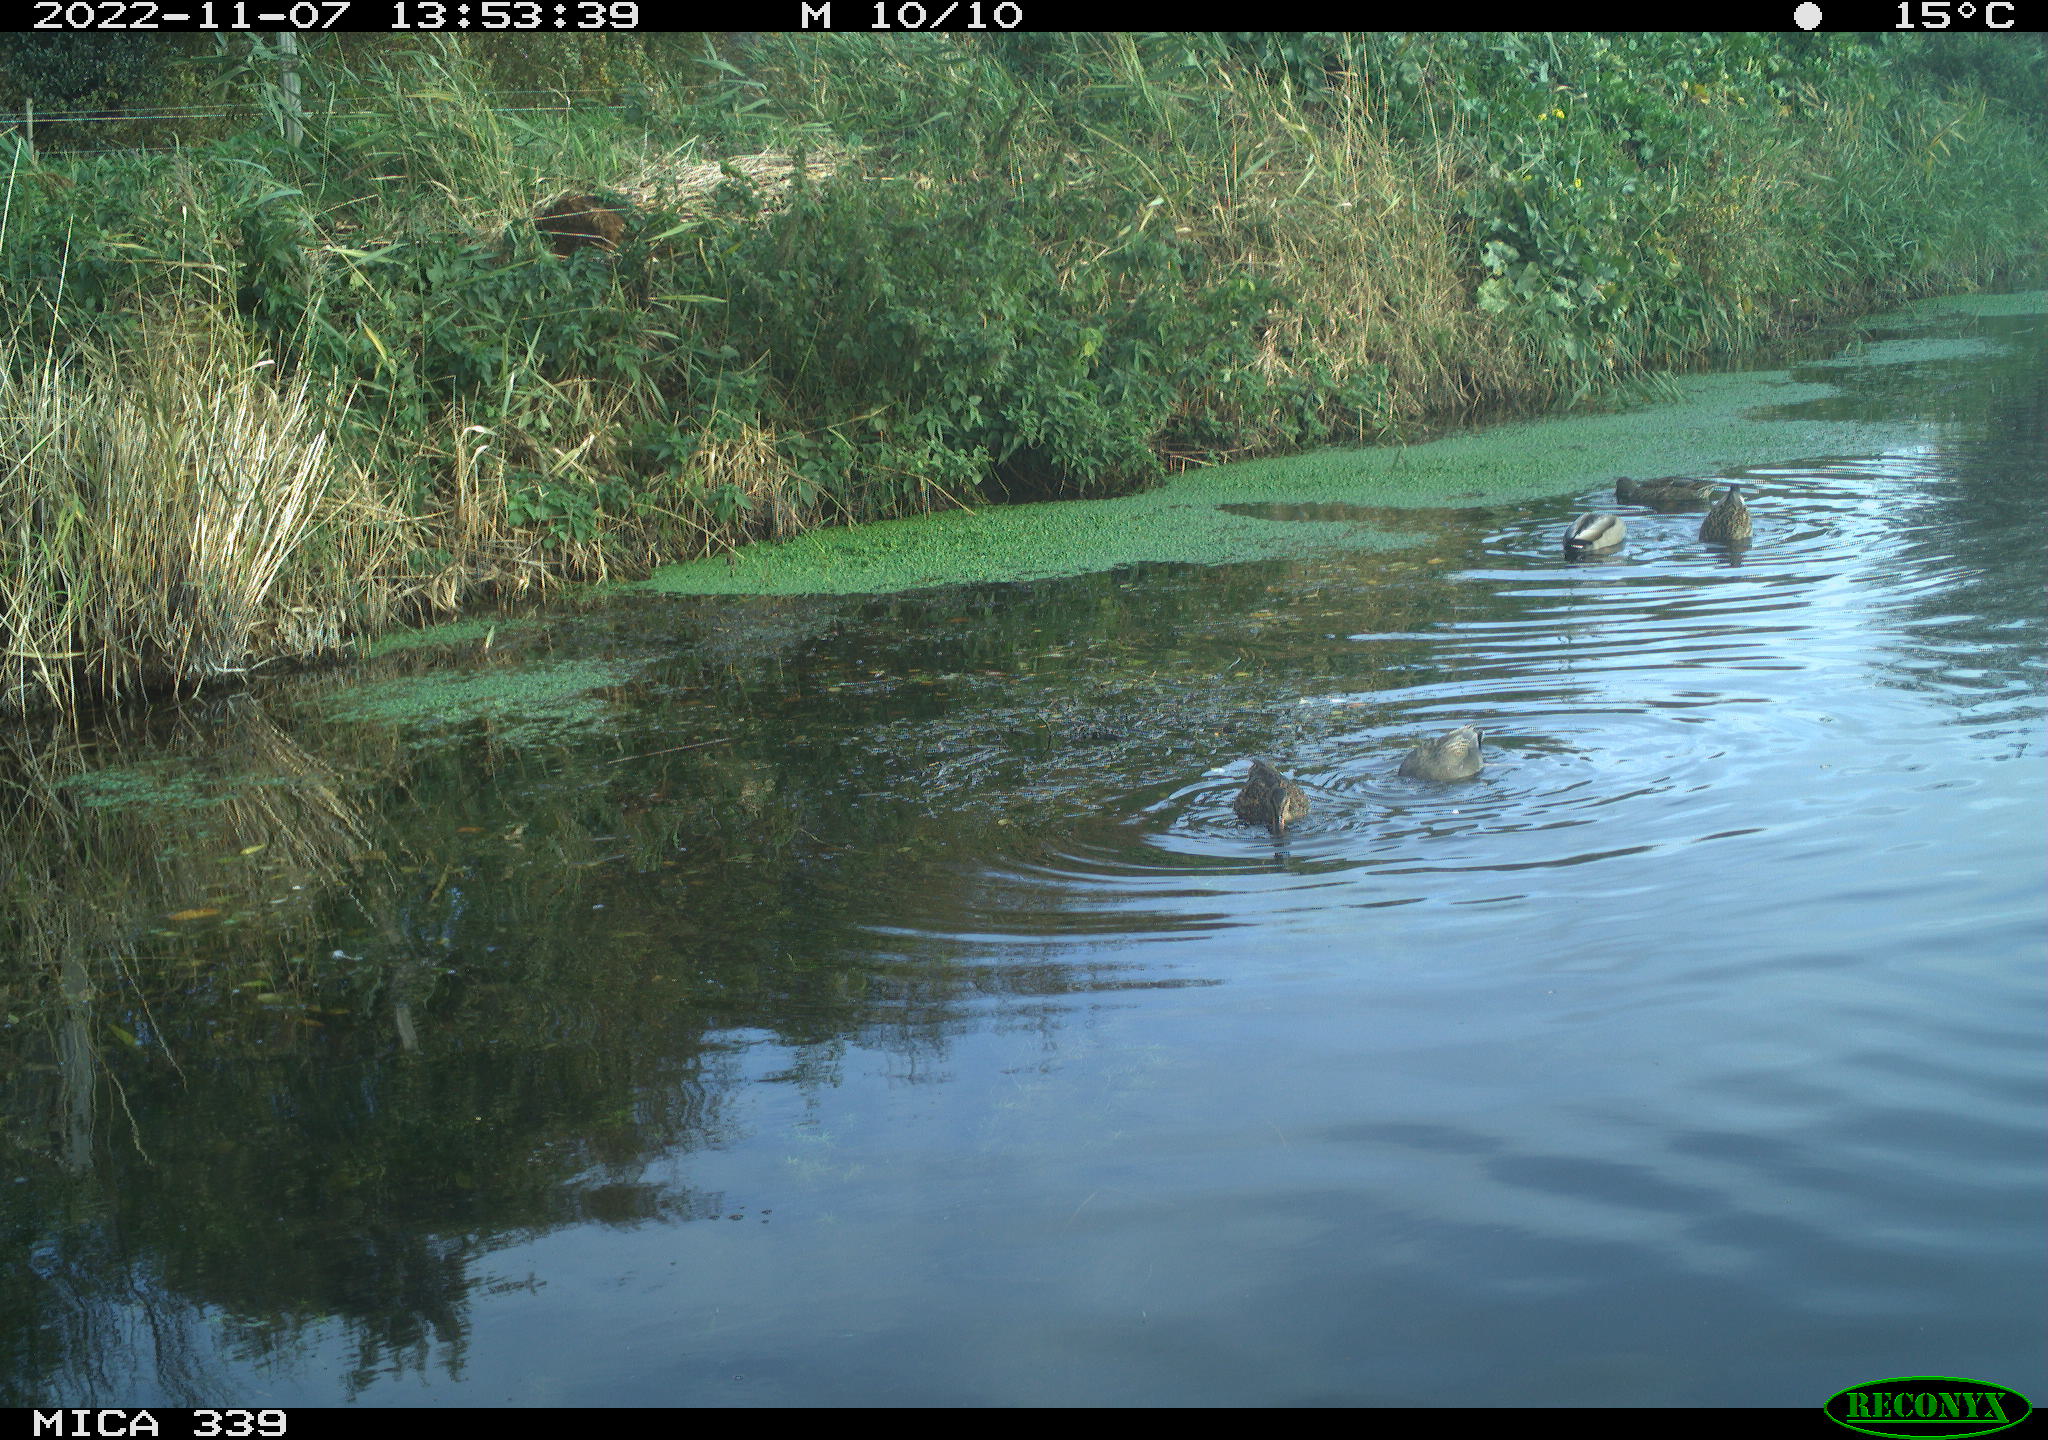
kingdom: Animalia
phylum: Chordata
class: Aves
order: Anseriformes
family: Anatidae
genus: Anas
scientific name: Anas platyrhynchos
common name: Mallard
